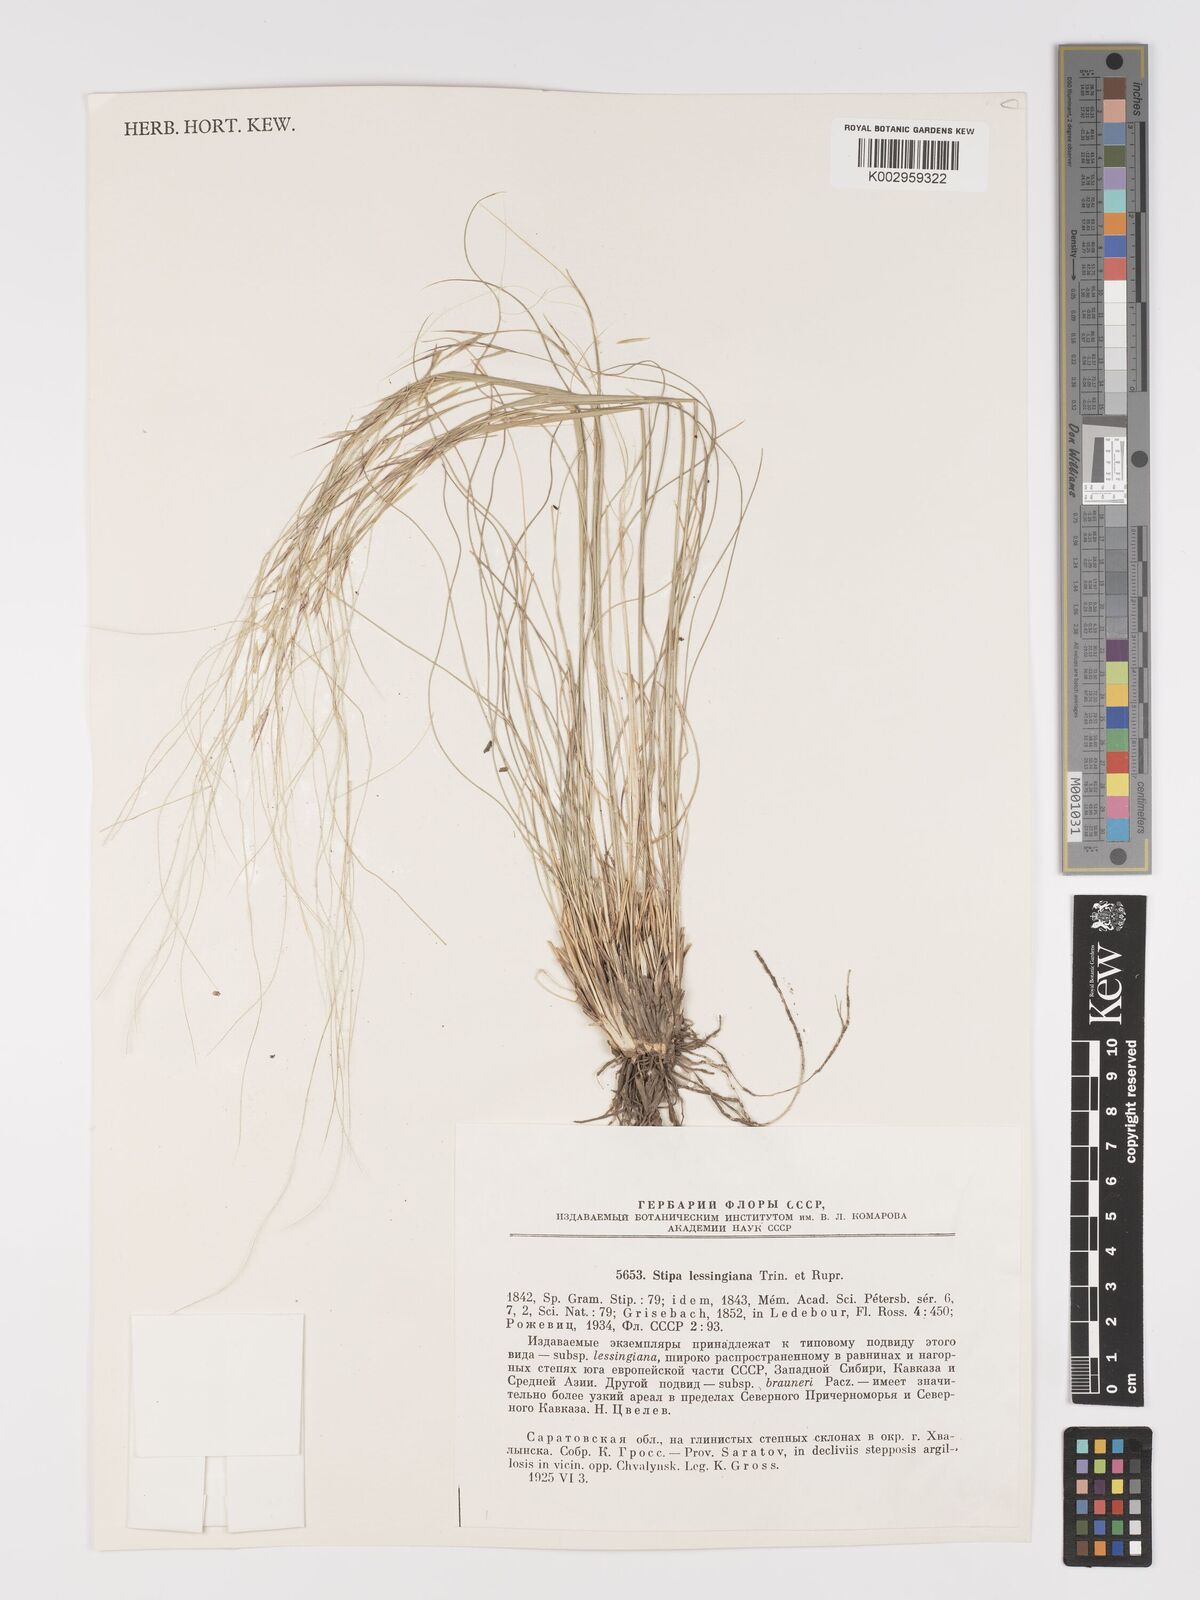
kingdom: Plantae
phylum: Tracheophyta
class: Liliopsida
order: Poales
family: Poaceae
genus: Stipa
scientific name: Stipa lessingiana
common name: Needle grass
